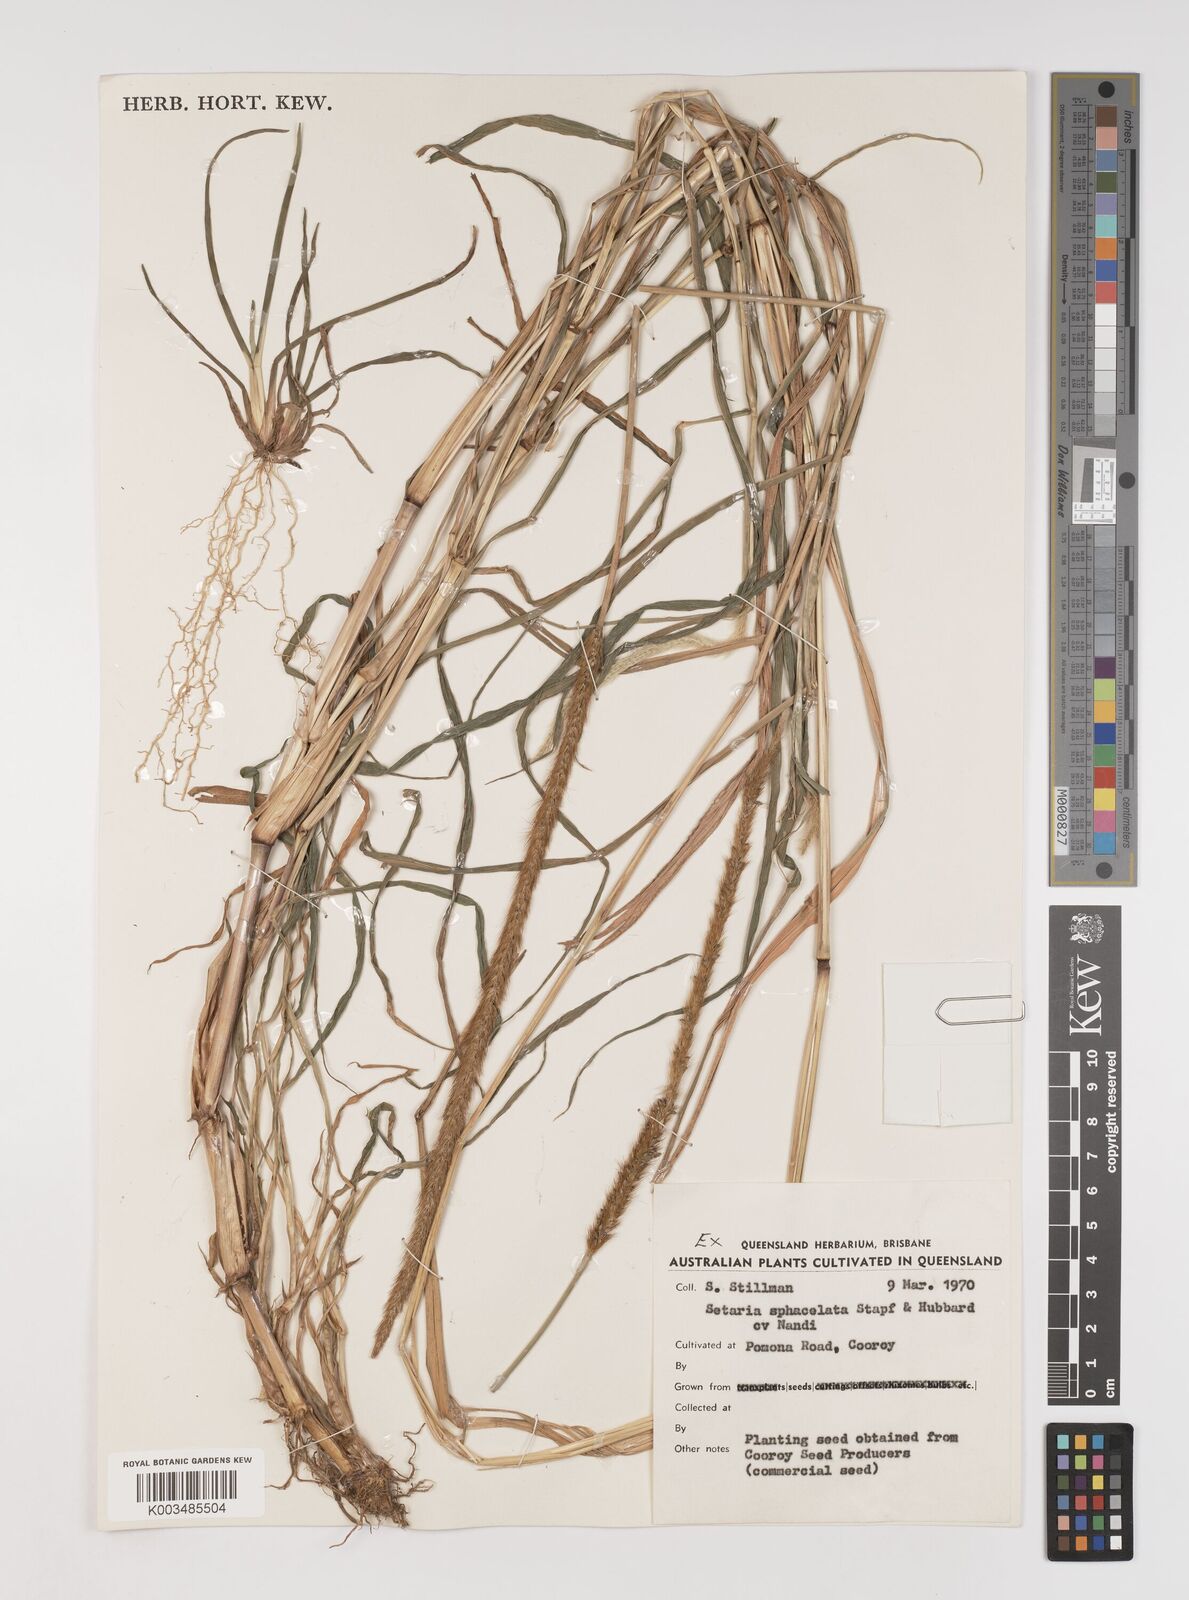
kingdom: Plantae
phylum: Tracheophyta
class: Liliopsida
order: Poales
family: Poaceae
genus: Setaria
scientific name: Setaria sphacelata
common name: African bristlegrass
